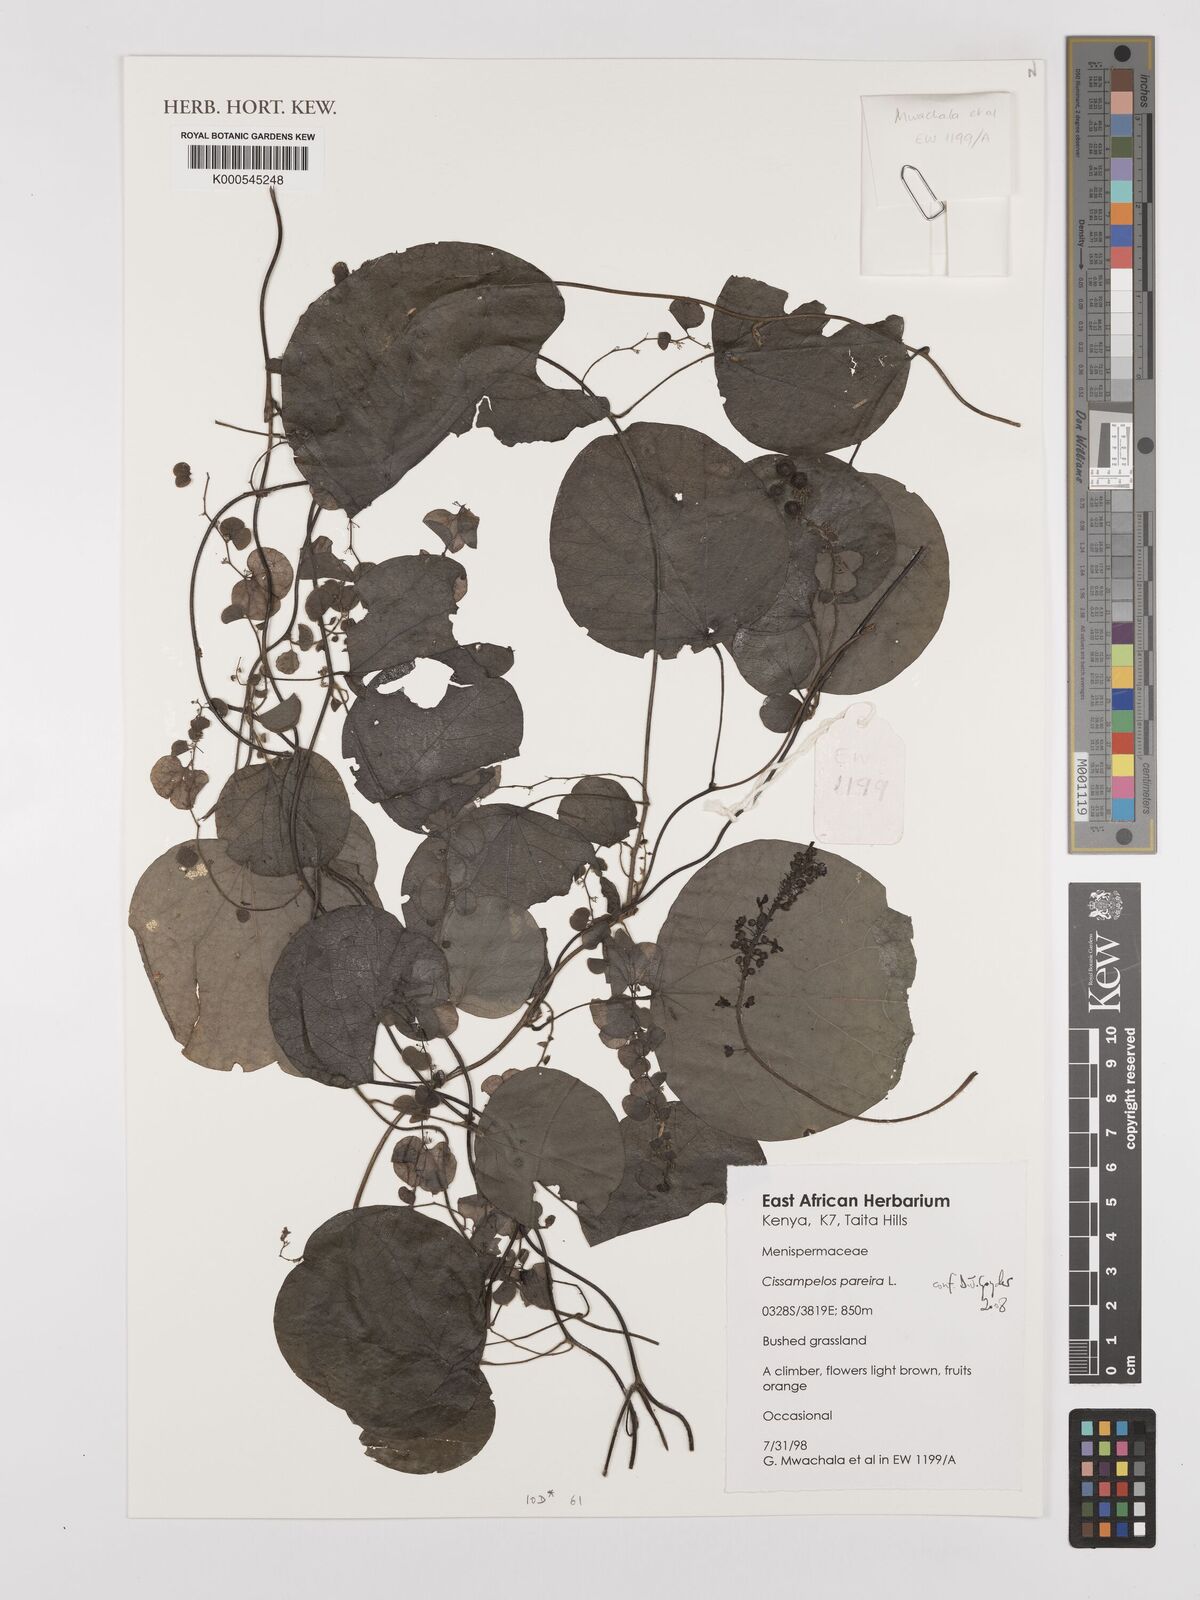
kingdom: Plantae
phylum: Tracheophyta
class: Magnoliopsida
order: Ranunculales
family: Menispermaceae
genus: Cissampelos
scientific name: Cissampelos pareira
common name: Velvetleaf
